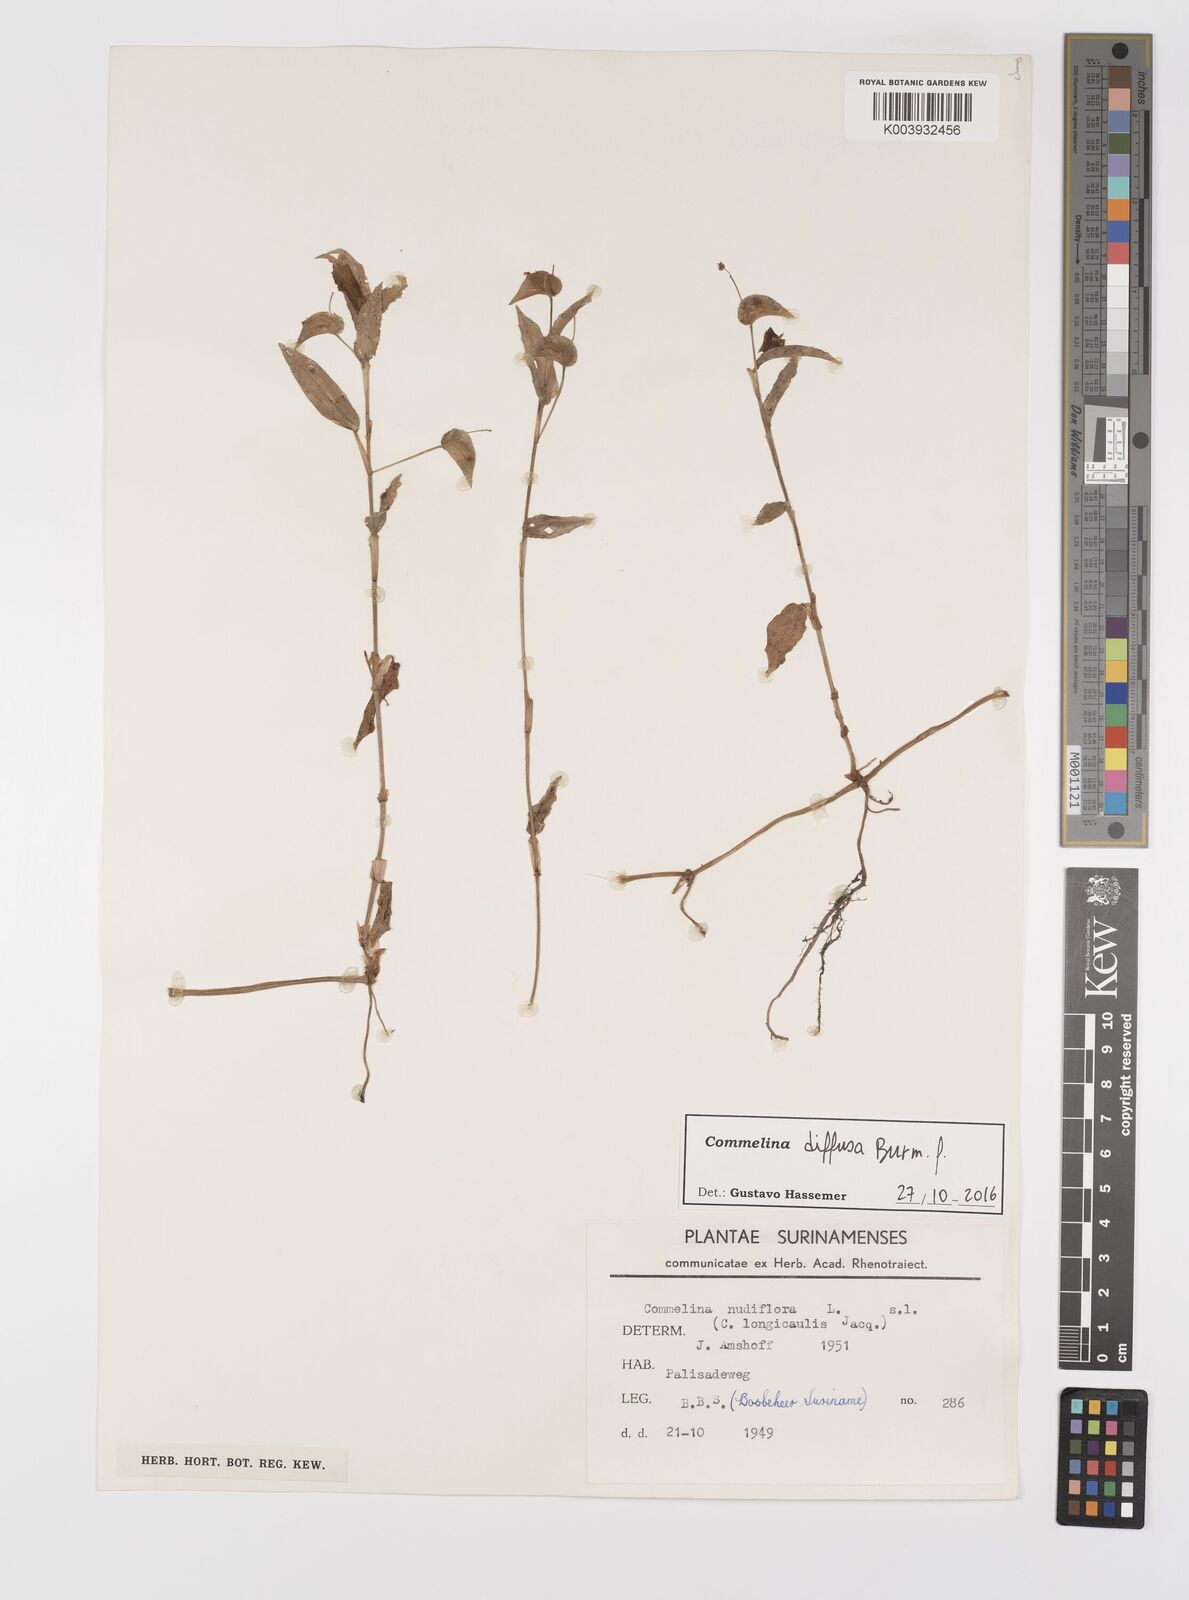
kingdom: Plantae
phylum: Tracheophyta
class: Liliopsida
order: Commelinales
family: Commelinaceae
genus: Commelina
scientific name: Commelina diffusa
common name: Climbing dayflower
